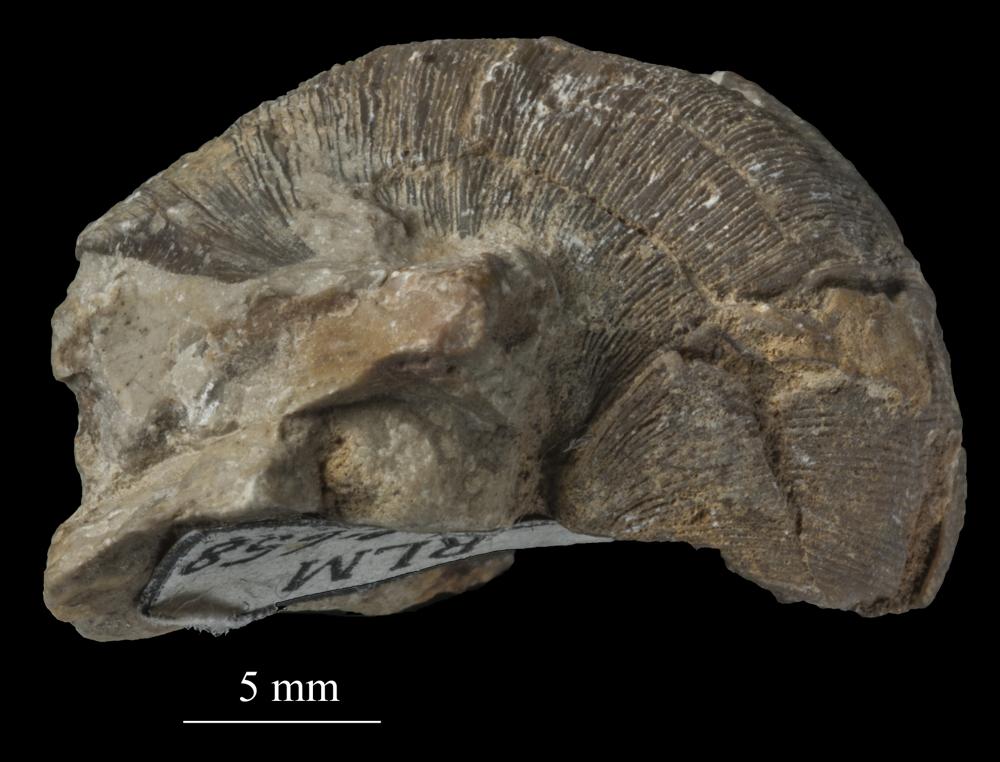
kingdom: Animalia
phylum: Mollusca
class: Gastropoda
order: Pleurotomariida
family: Phanerotrematidae
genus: Brachytomaria
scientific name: Brachytomaria nodulosa
